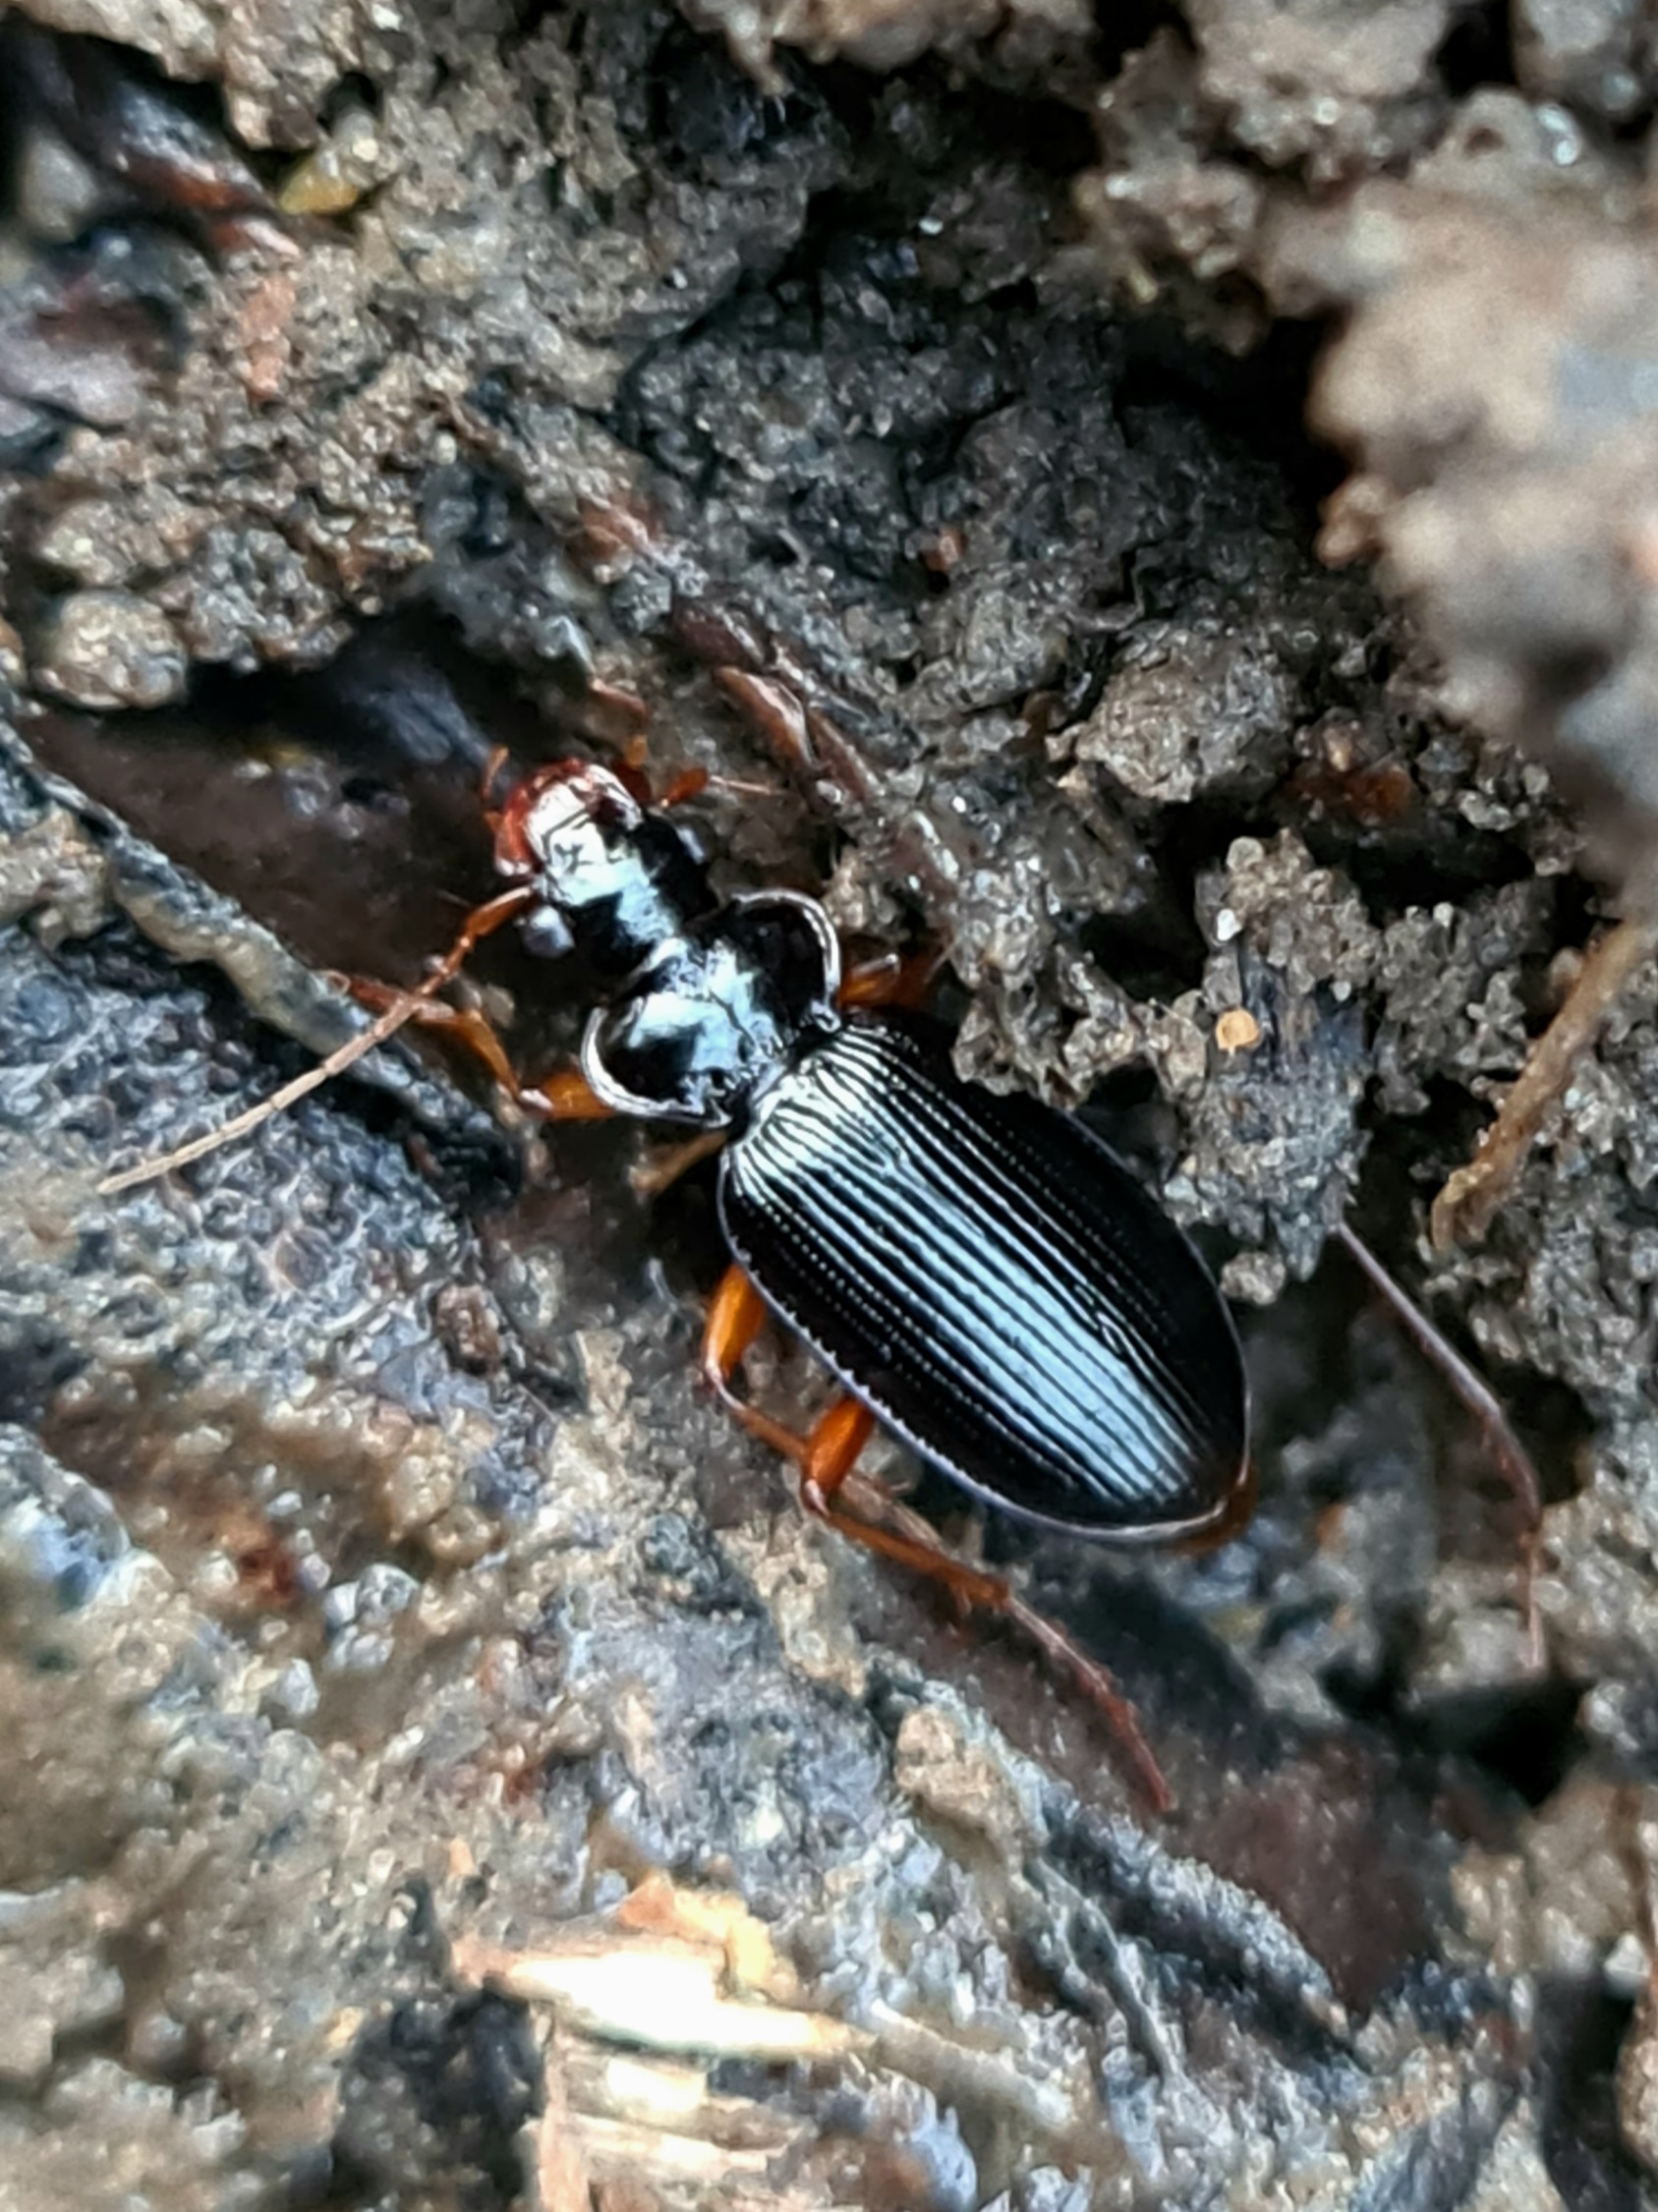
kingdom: Animalia
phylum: Arthropoda
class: Insecta
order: Coleoptera
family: Carabidae
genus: Leistus
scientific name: Leistus rufomarginatus
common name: Stor skægløber
